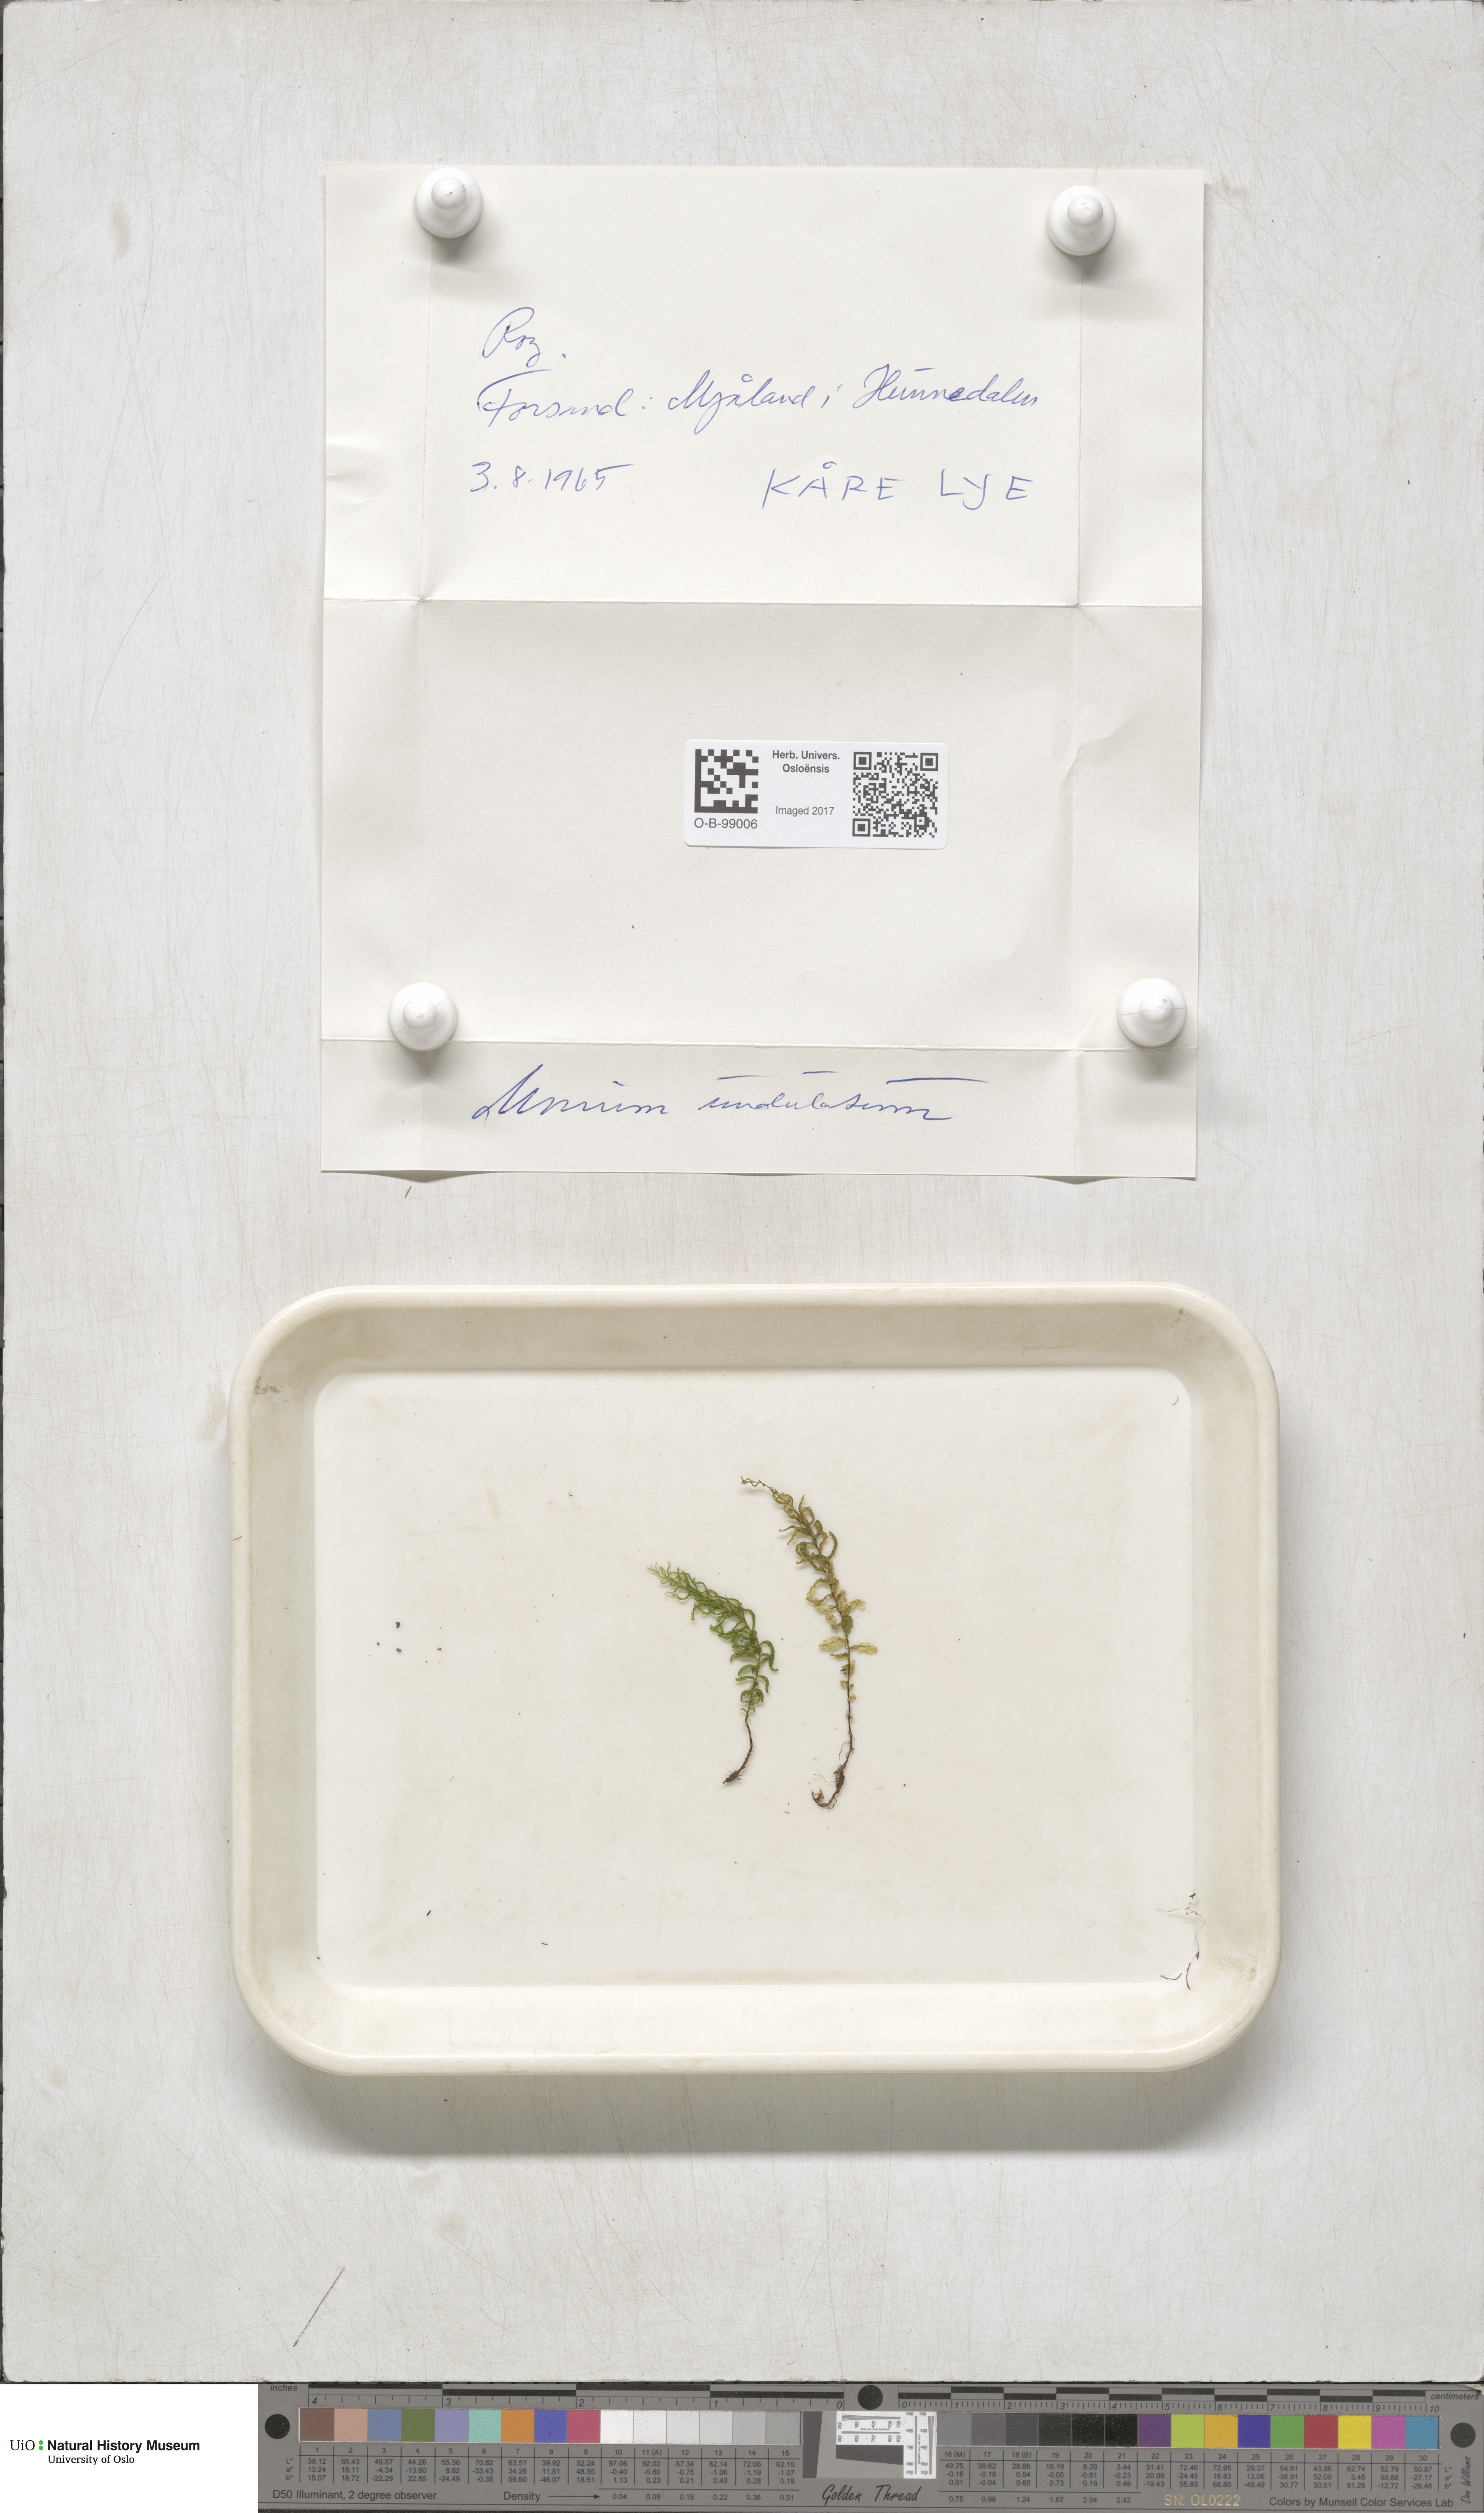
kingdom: Plantae
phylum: Bryophyta
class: Bryopsida
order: Bryales
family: Mniaceae
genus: Plagiomnium
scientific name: Plagiomnium undulatum
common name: Hart's-tongue thyme-moss
